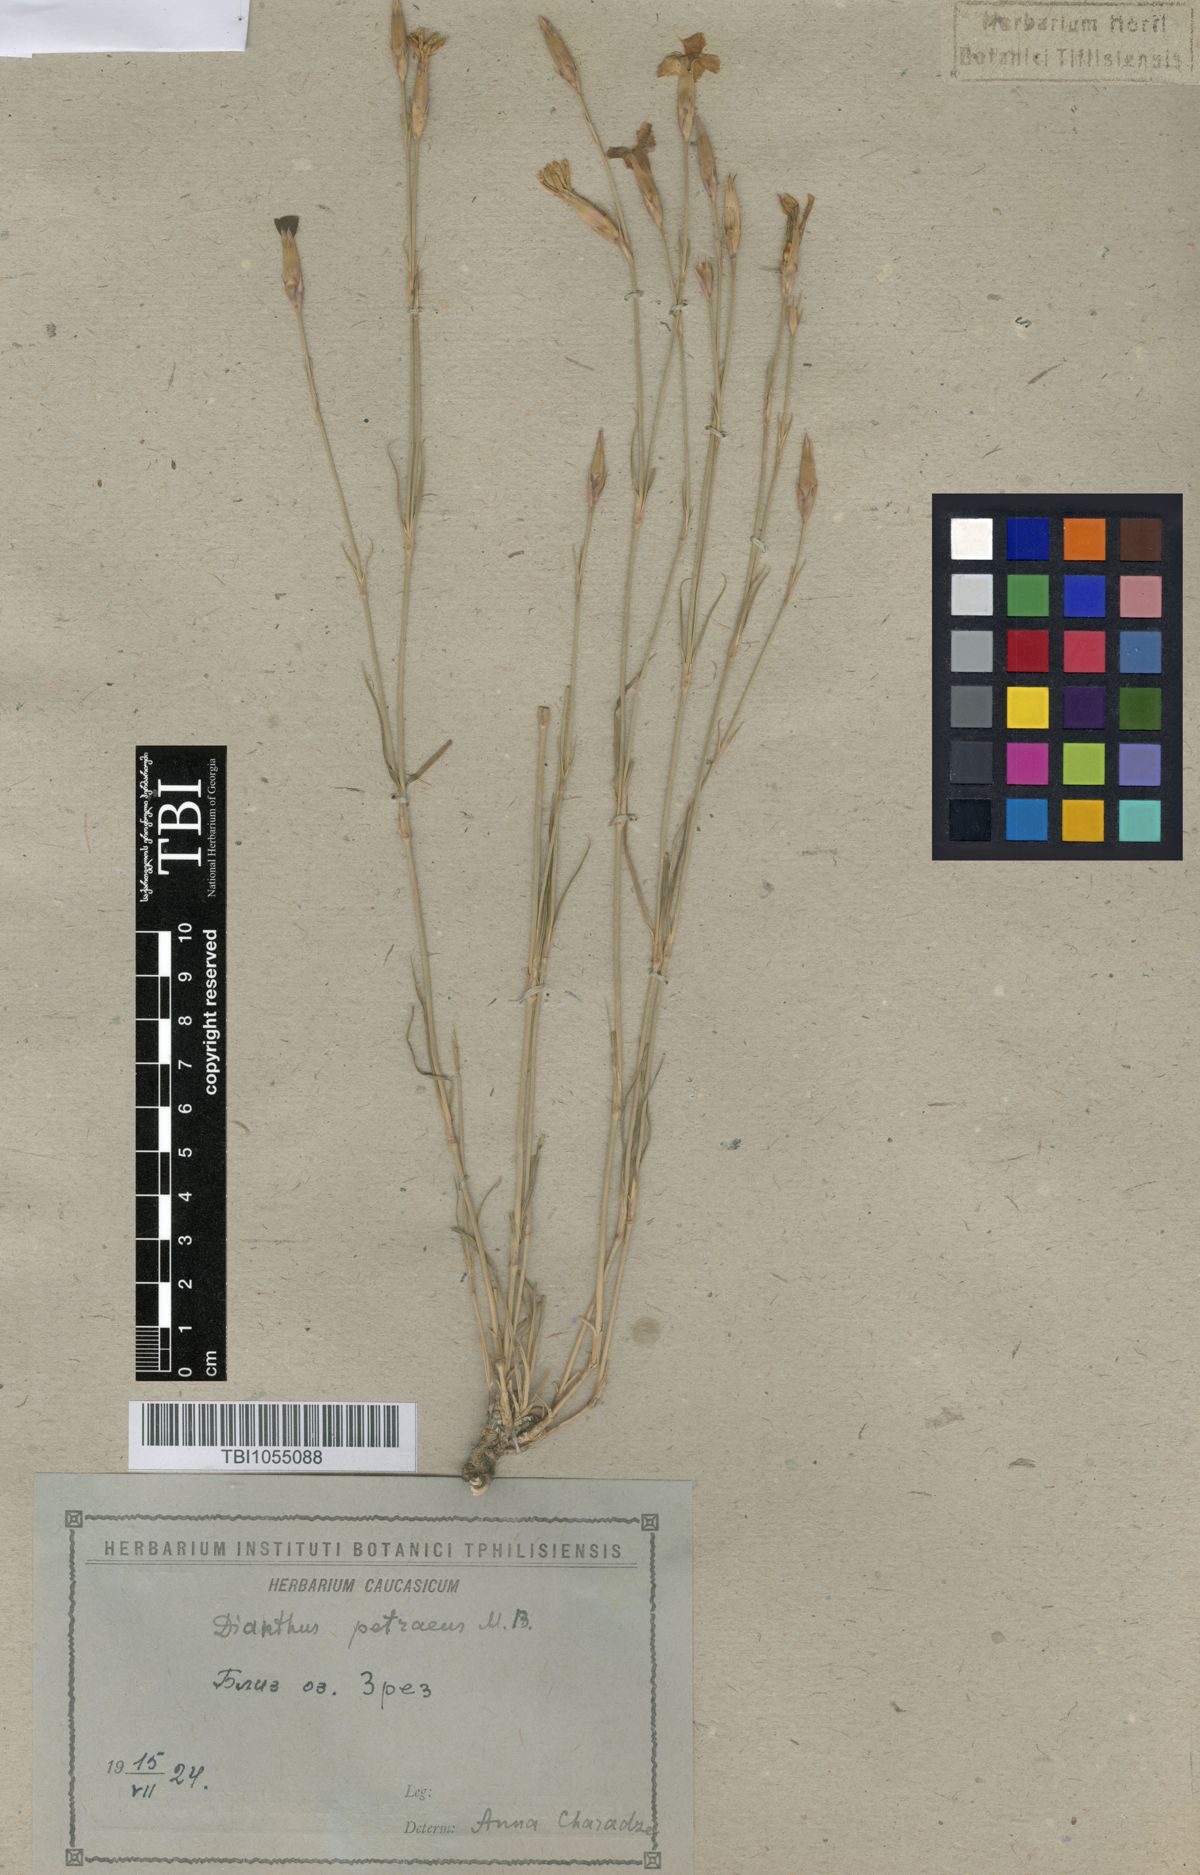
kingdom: Plantae
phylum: Tracheophyta
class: Magnoliopsida
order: Caryophyllales
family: Caryophyllaceae
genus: Dianthus
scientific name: Dianthus cretaceus
